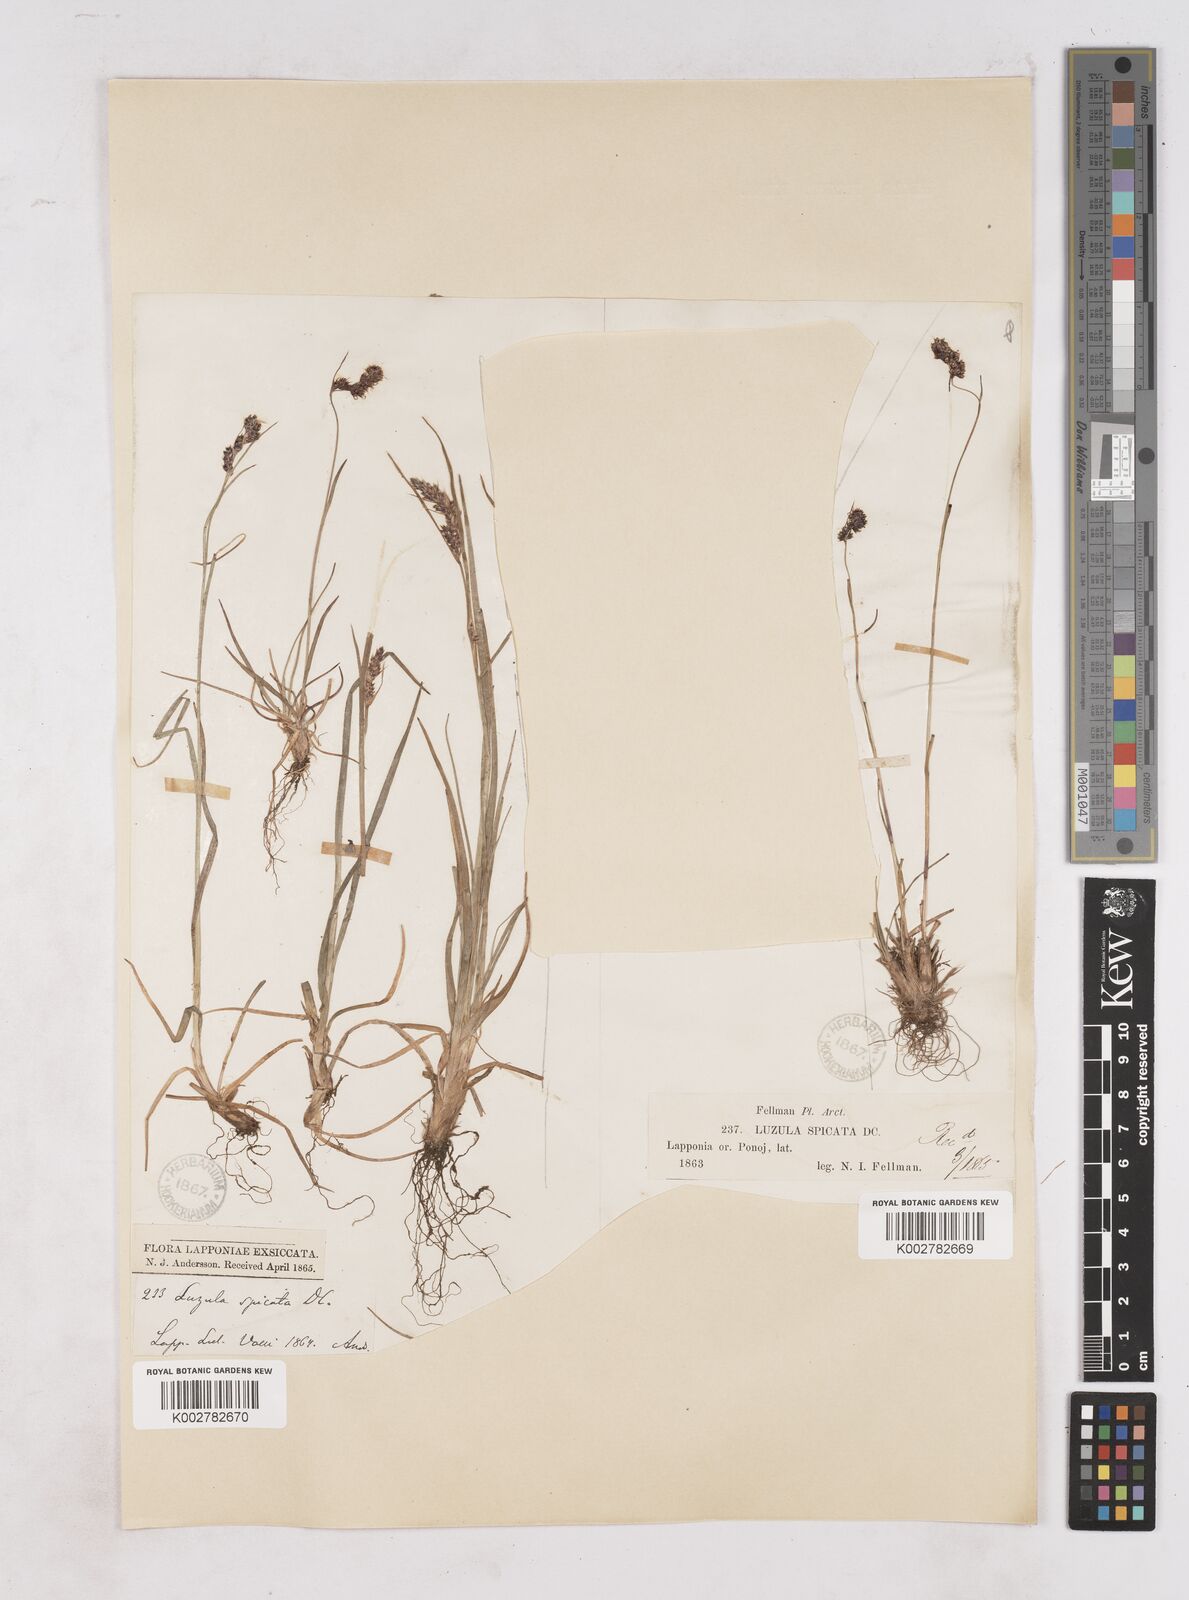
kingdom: Plantae
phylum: Tracheophyta
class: Liliopsida
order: Poales
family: Juncaceae
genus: Luzula
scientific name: Luzula spicata
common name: Spiked wood-rush
